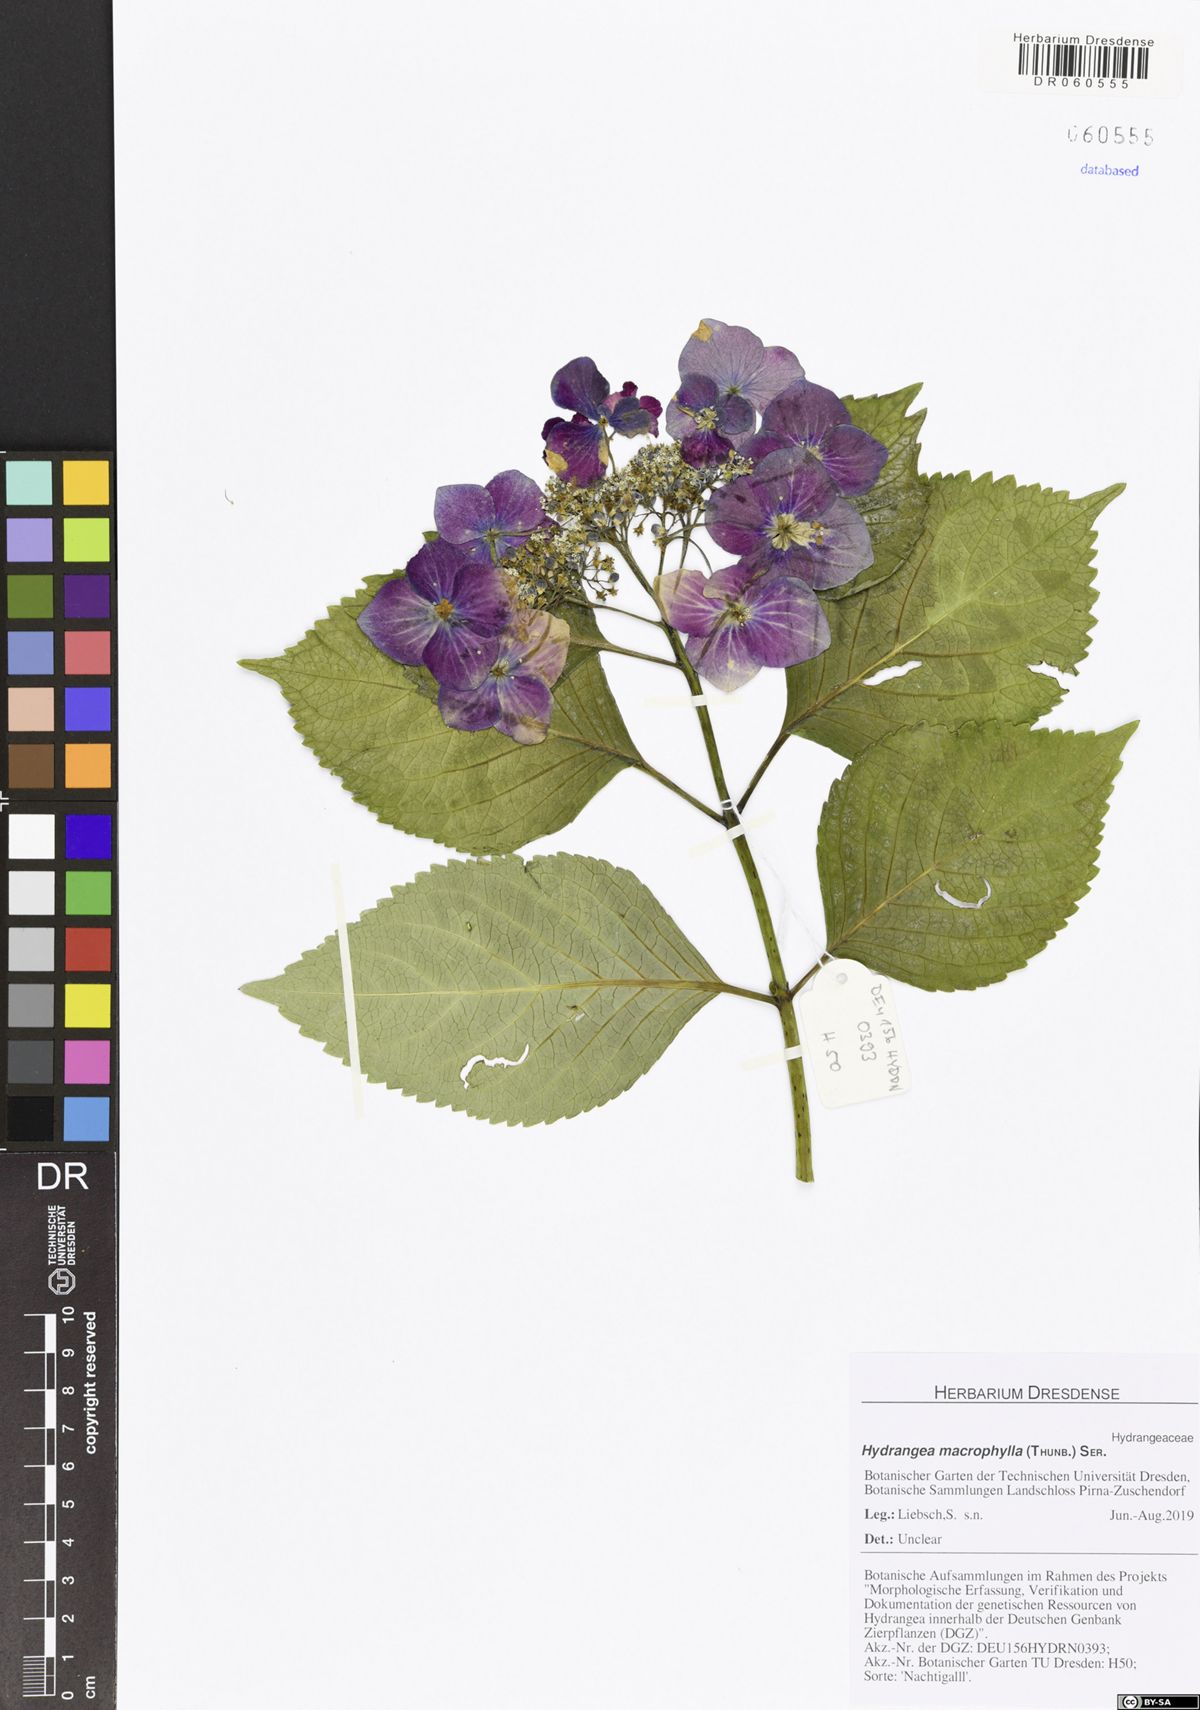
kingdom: Plantae
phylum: Tracheophyta
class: Magnoliopsida
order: Cornales
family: Hydrangeaceae
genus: Hydrangea
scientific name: Hydrangea macrophylla
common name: Hydrangea
